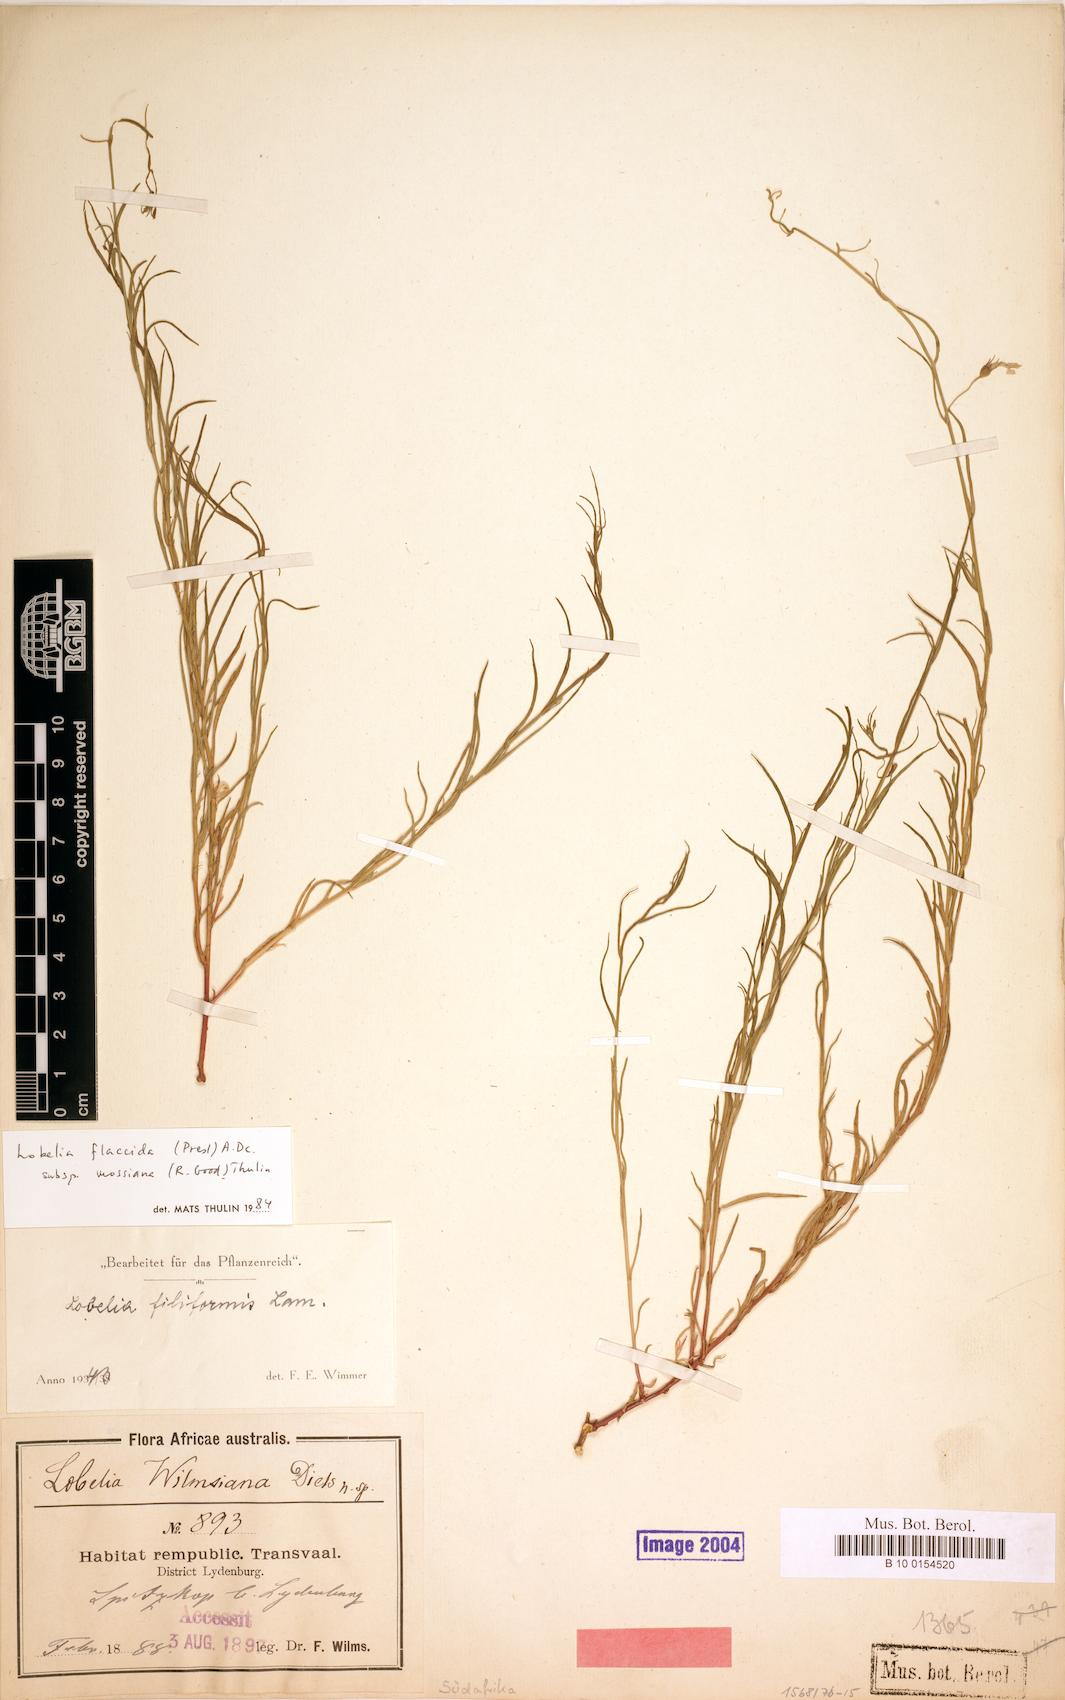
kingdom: Plantae
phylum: Tracheophyta
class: Magnoliopsida
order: Asterales
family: Campanulaceae
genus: Lobelia
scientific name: Lobelia flaccida
